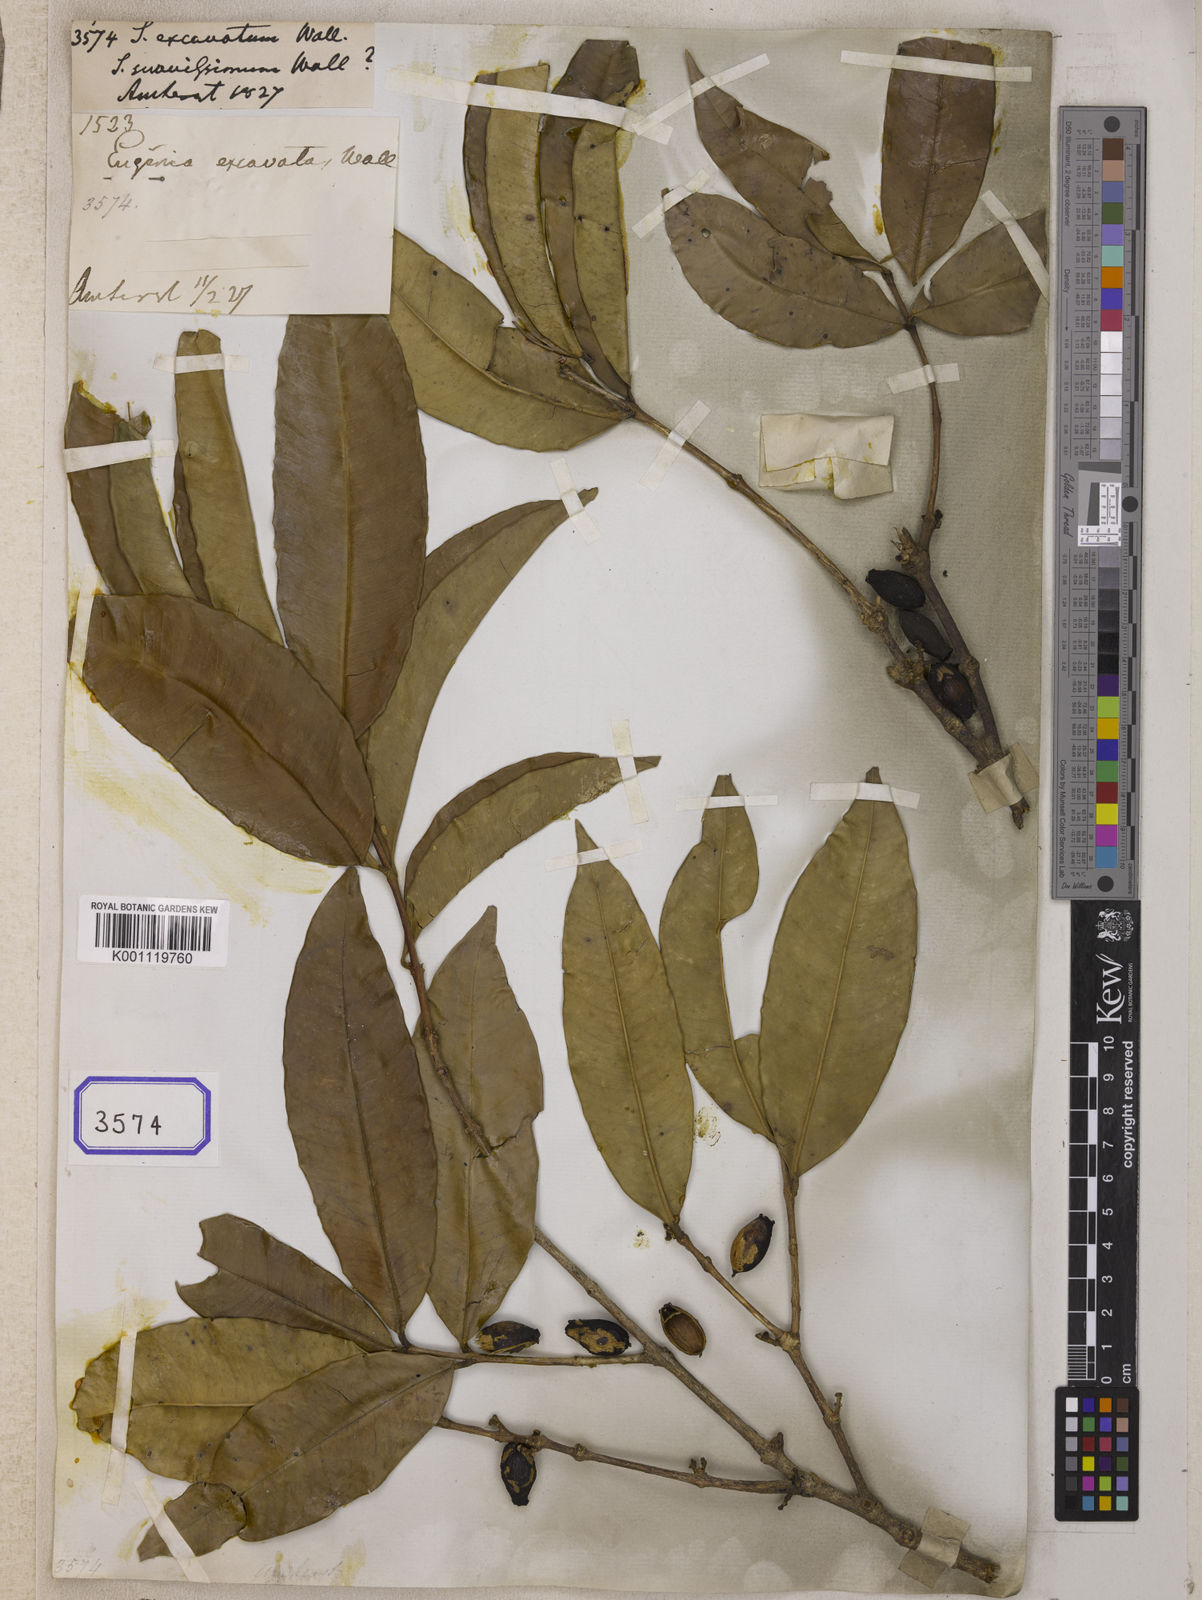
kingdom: Plantae
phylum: Tracheophyta
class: Magnoliopsida
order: Myrtales
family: Myrtaceae
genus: Syzygium
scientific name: Syzygium
